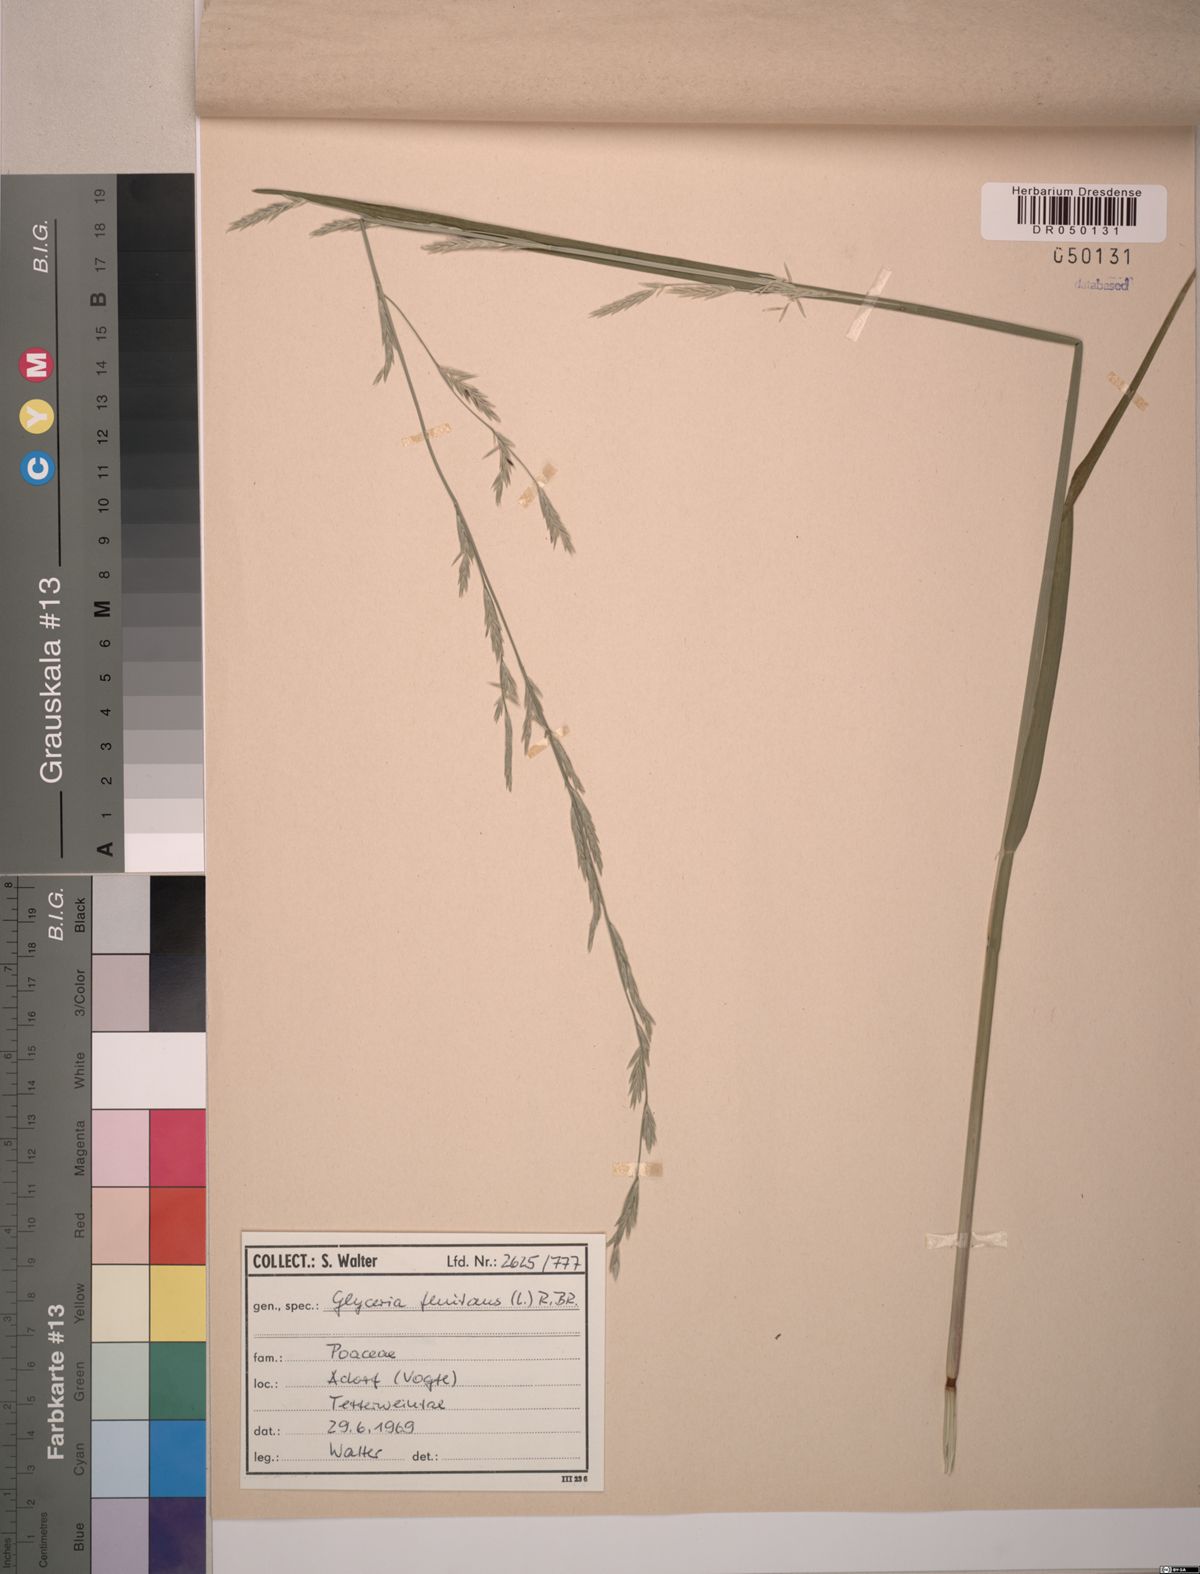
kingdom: Plantae
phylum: Tracheophyta
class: Liliopsida
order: Poales
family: Poaceae
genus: Glyceria
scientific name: Glyceria fluitans
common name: Floating sweet-grass
